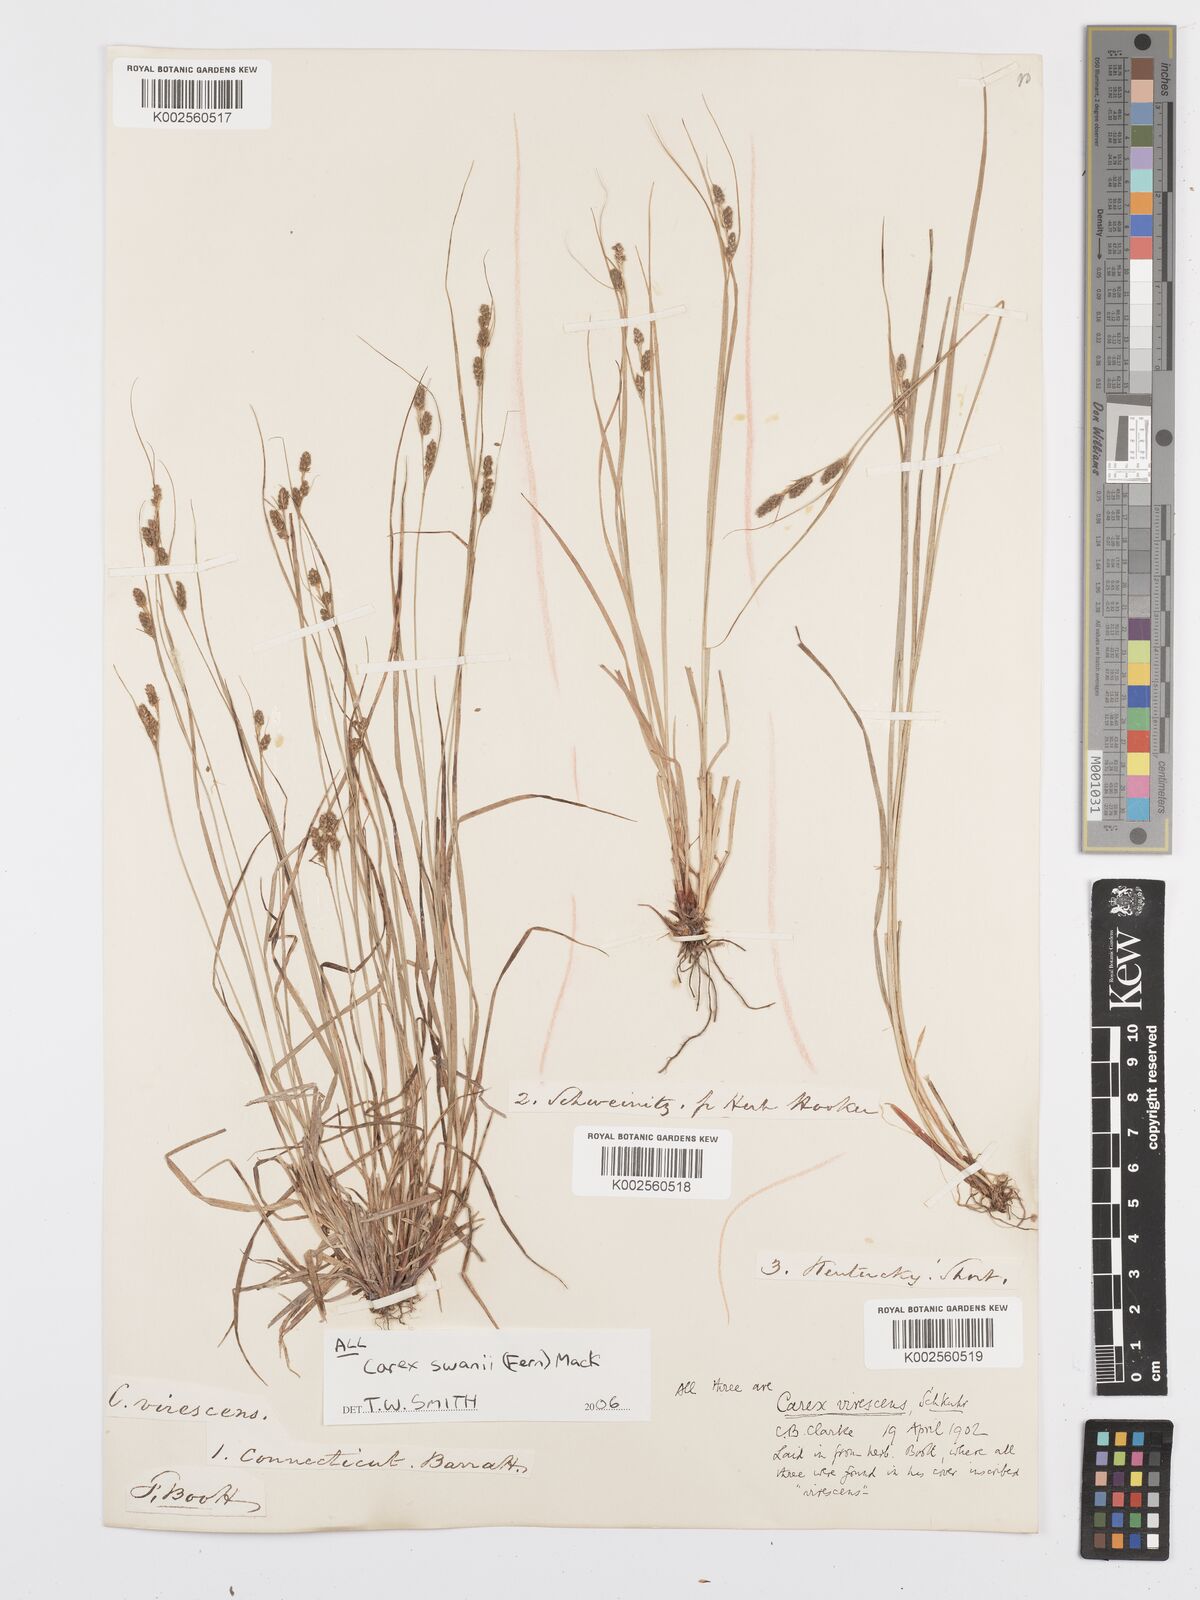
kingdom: Plantae
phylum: Tracheophyta
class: Liliopsida
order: Poales
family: Cyperaceae
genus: Carex
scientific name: Carex swanii
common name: Downy green sedge
